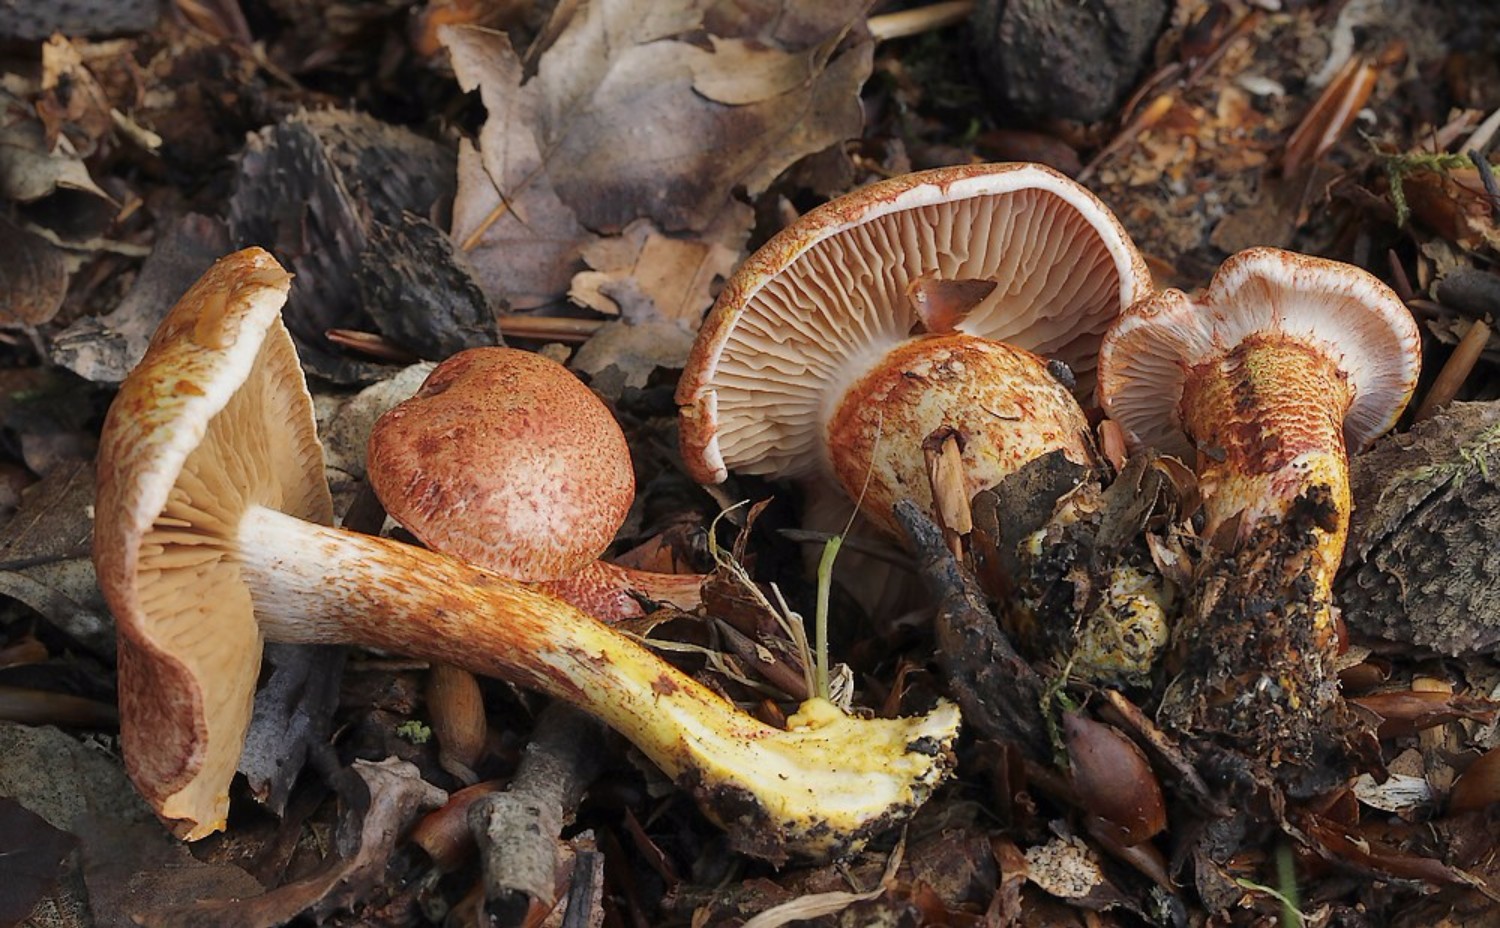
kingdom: Fungi
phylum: Basidiomycota
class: Agaricomycetes
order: Agaricales
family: Cortinariaceae
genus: Cortinarius
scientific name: Cortinarius bolaris
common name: cinnoberskællet slørhat
